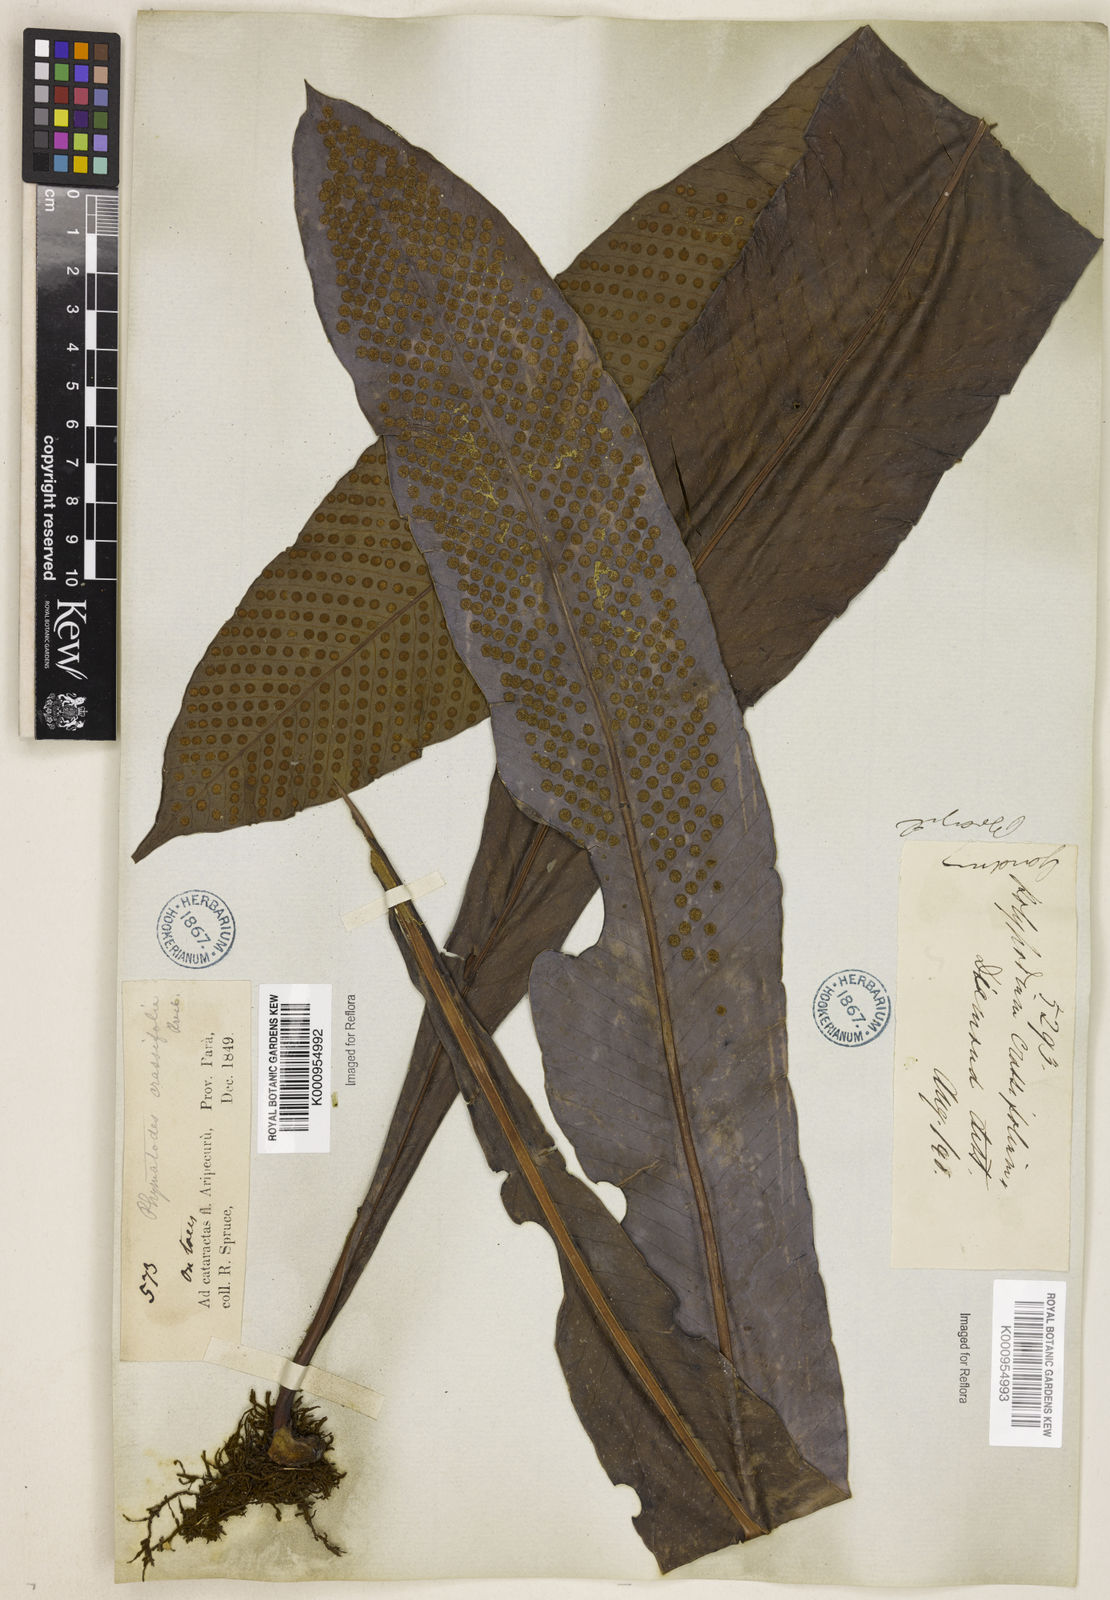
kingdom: Plantae
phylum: Tracheophyta
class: Polypodiopsida
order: Polypodiales
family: Polypodiaceae
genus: Niphidium
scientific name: Niphidium crassifolium
